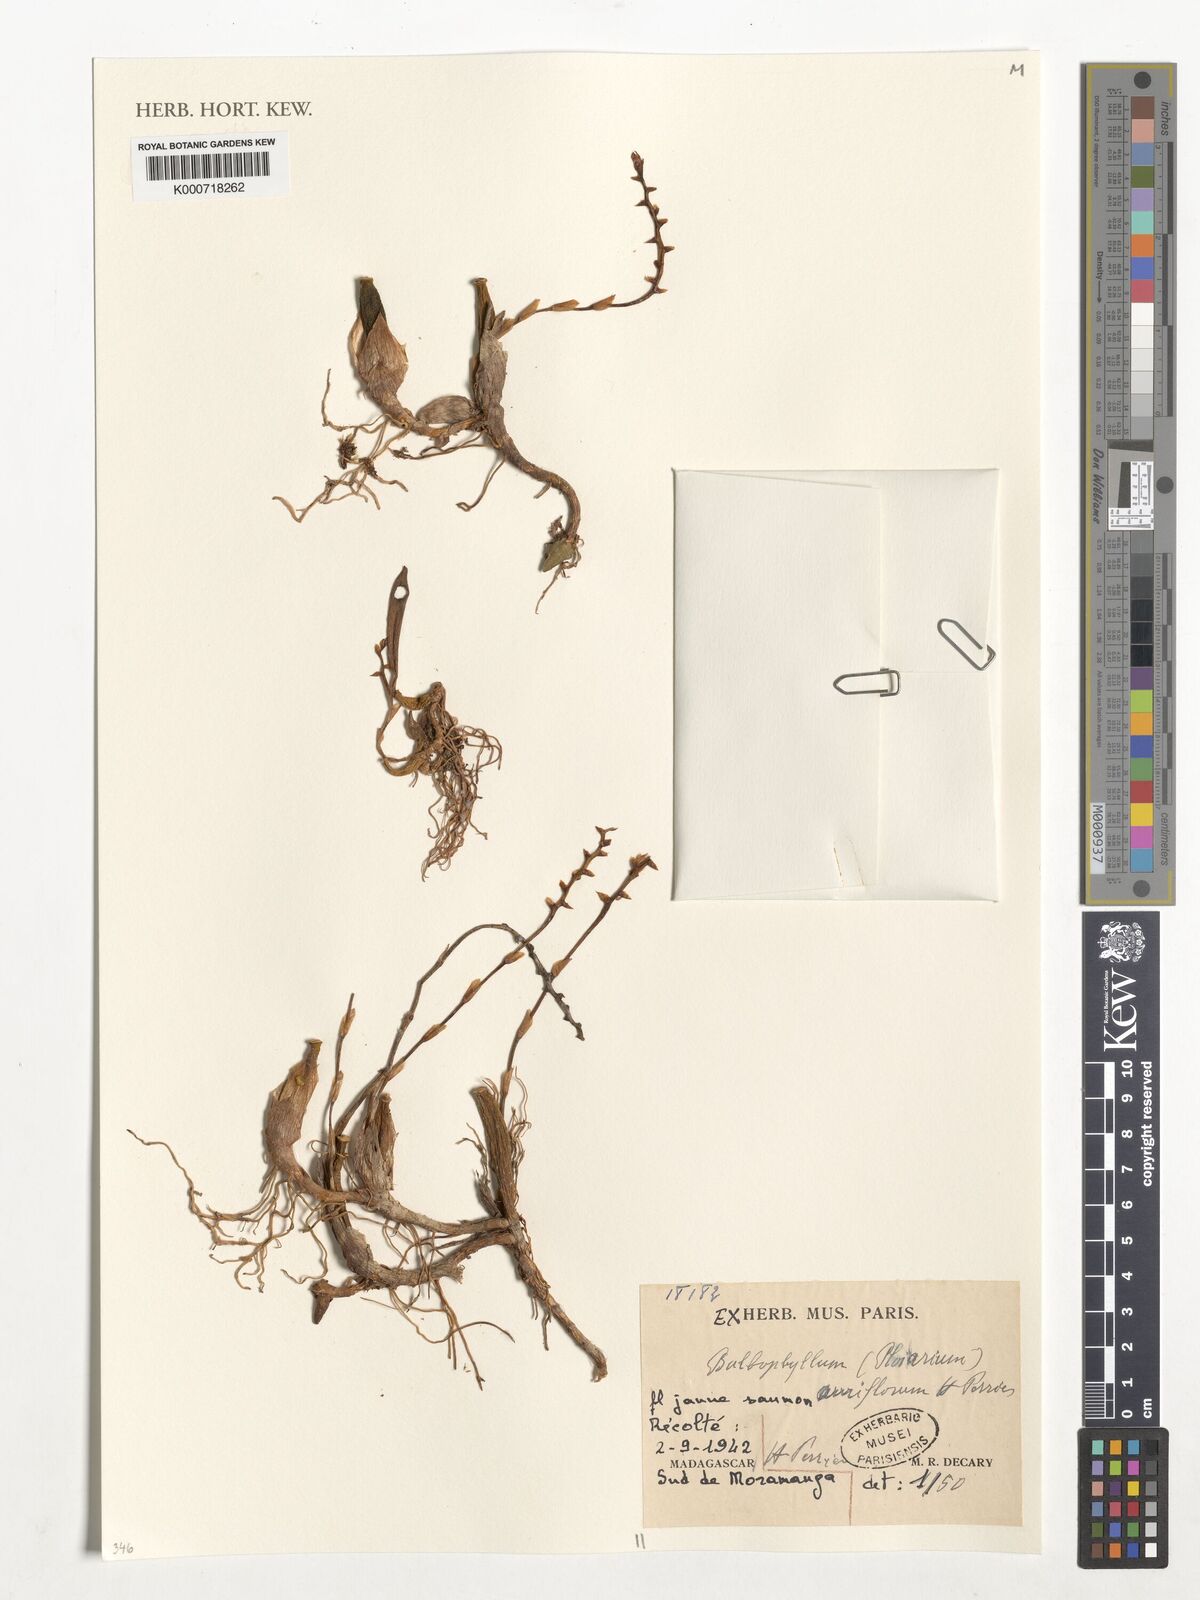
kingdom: Plantae
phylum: Tracheophyta
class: Liliopsida
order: Asparagales
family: Orchidaceae
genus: Bulbophyllum
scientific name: Bulbophyllum auriflorum
